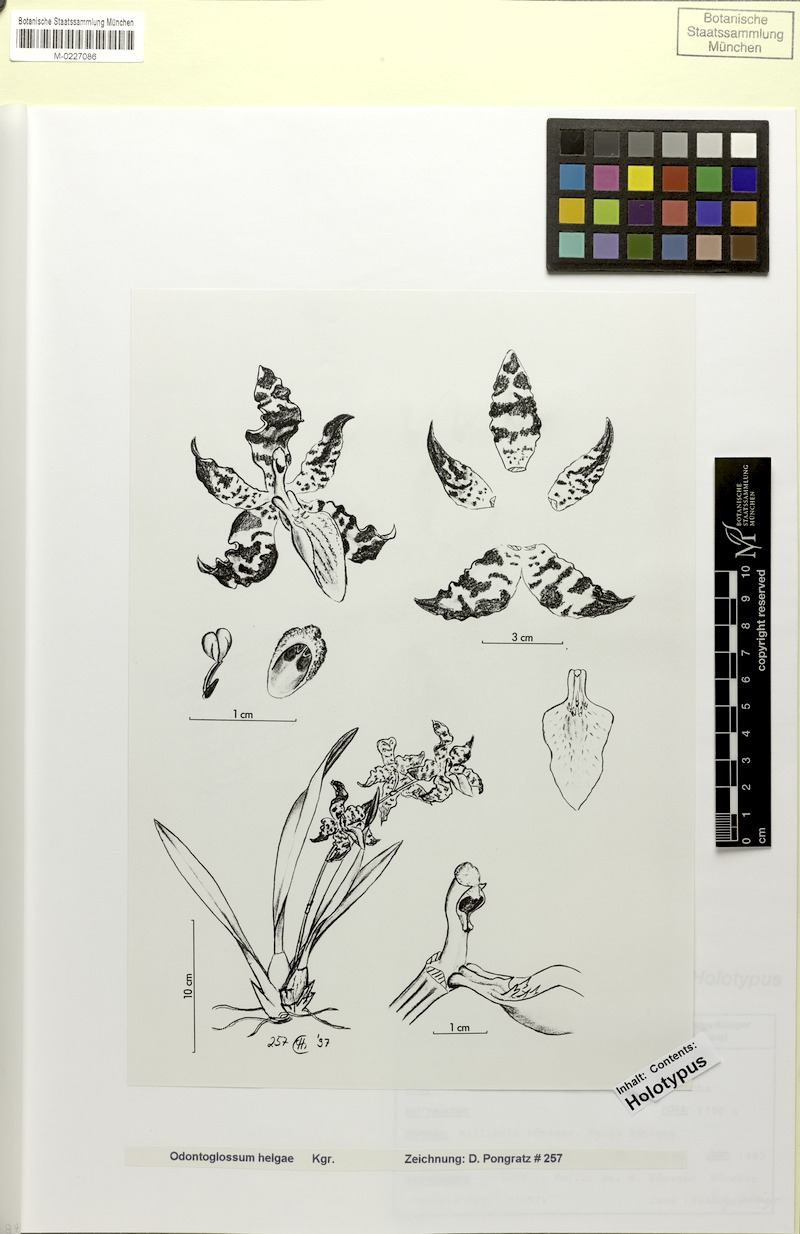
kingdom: Plantae
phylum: Tracheophyta
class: Liliopsida
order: Asparagales
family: Orchidaceae
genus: Oncidium
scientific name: Oncidium gayi
